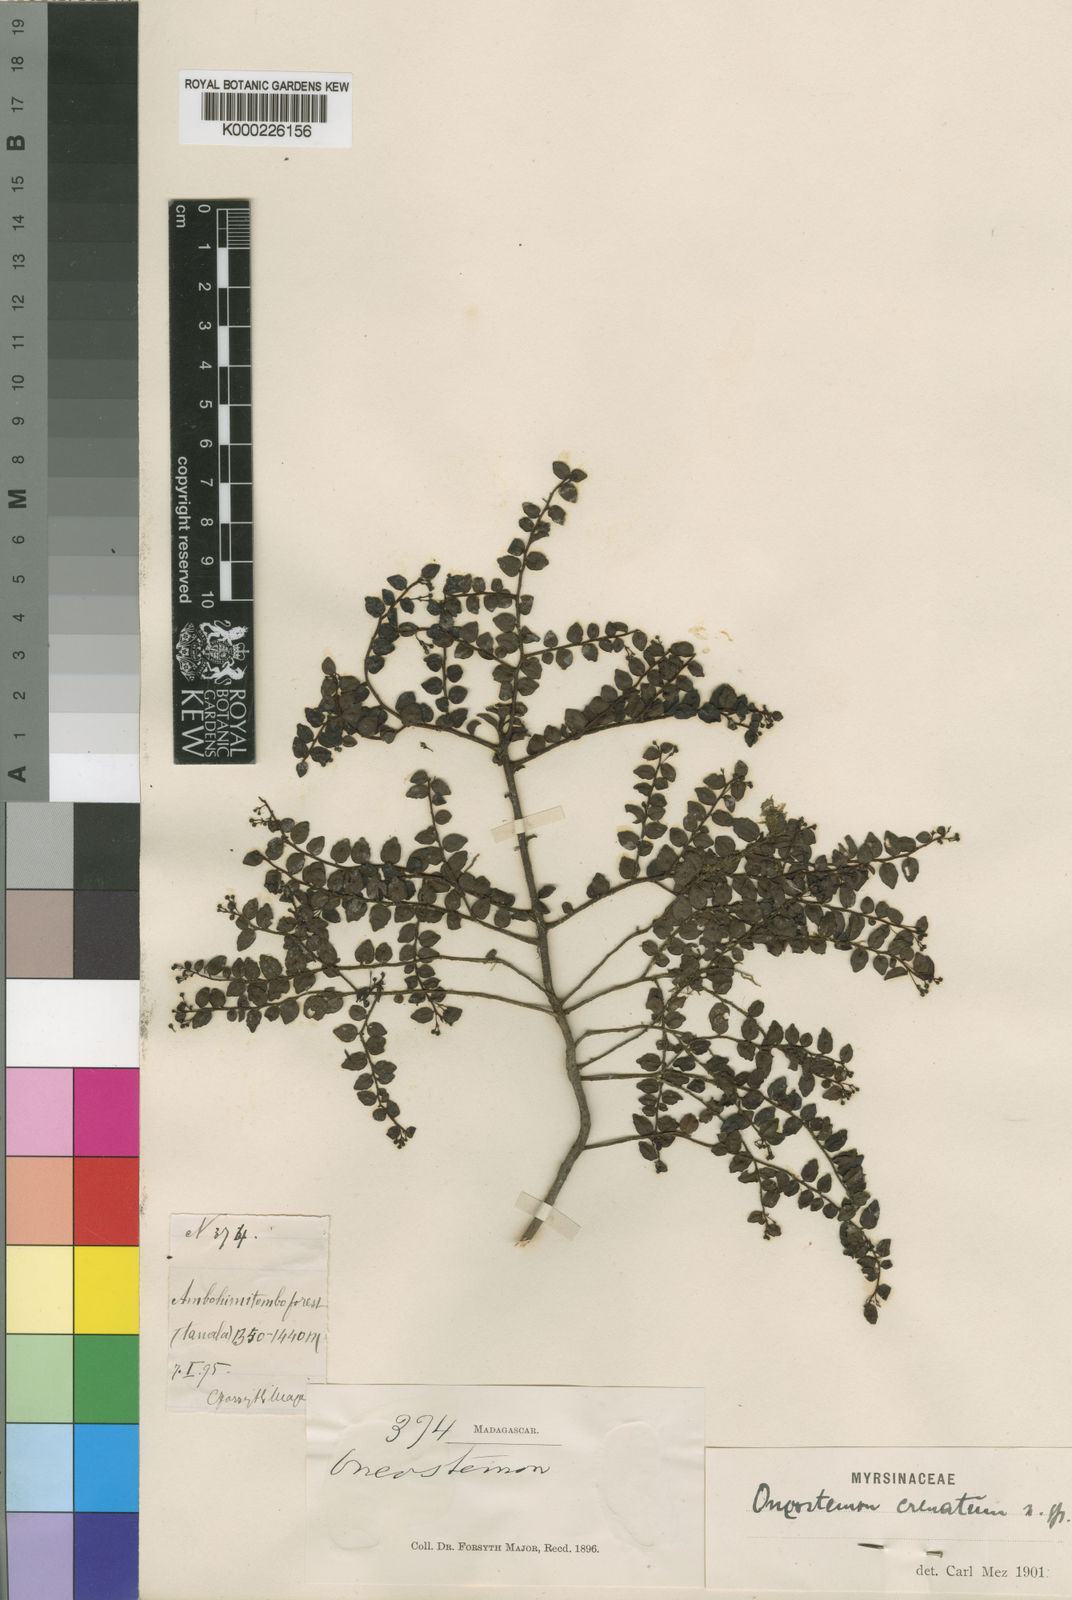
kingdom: Plantae
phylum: Tracheophyta
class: Magnoliopsida
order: Ericales
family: Primulaceae
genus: Oncostemum
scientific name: Oncostemum crenatum
